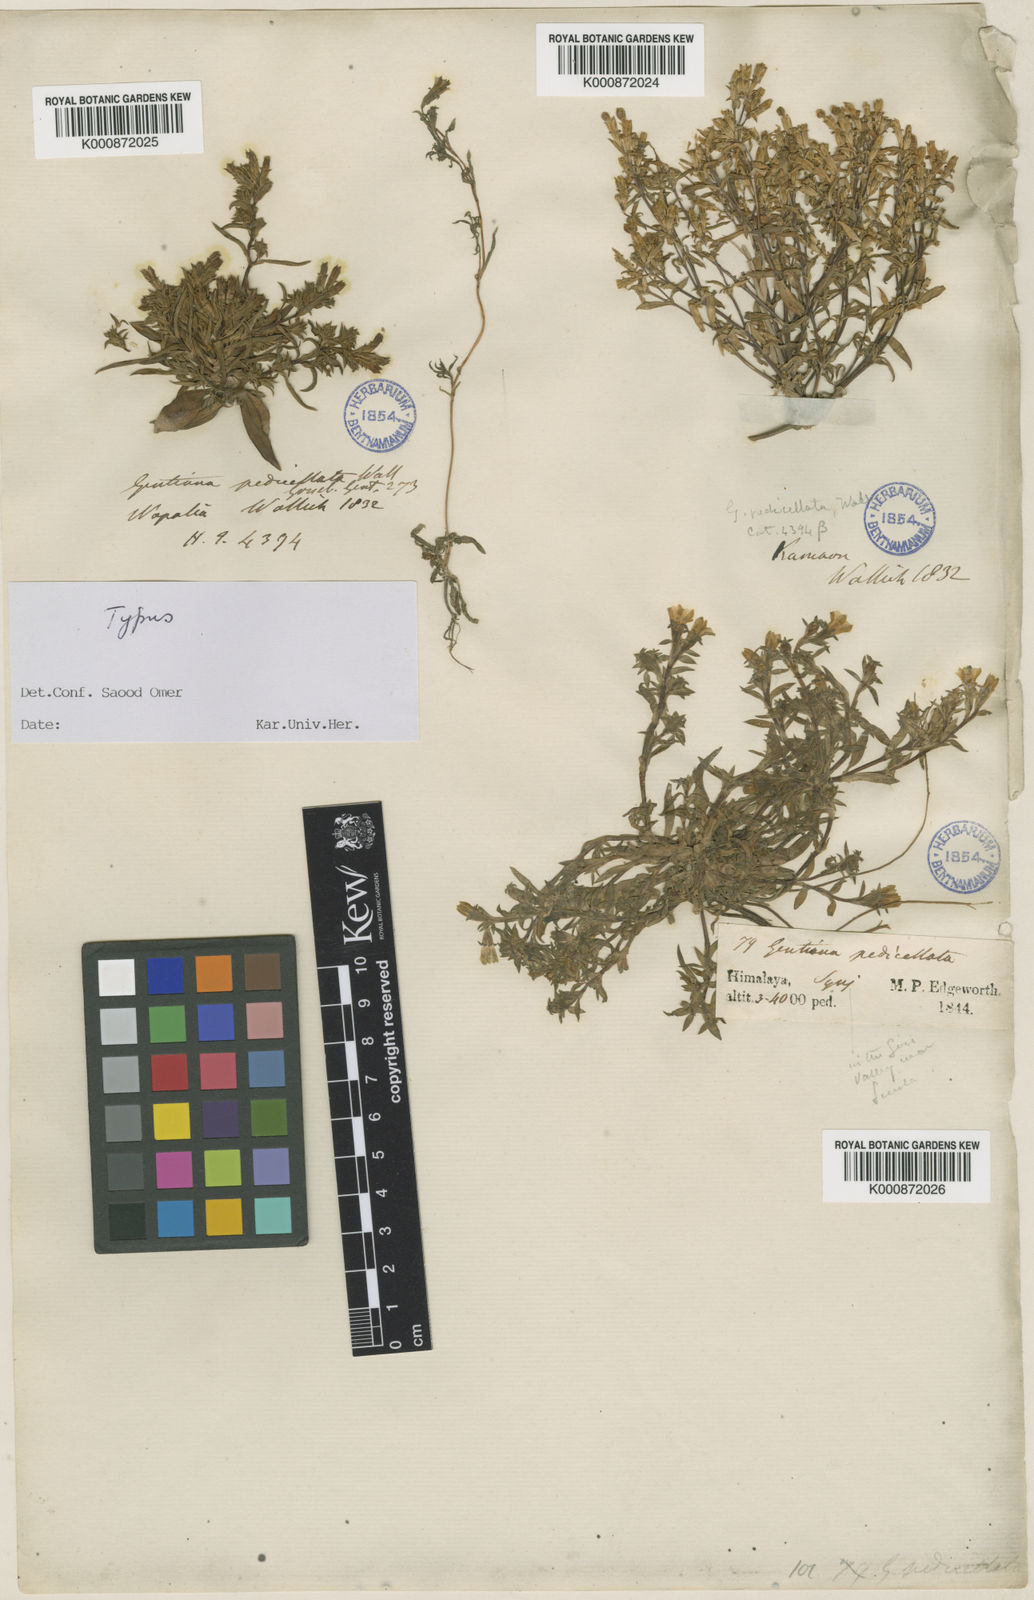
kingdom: Plantae
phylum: Tracheophyta
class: Magnoliopsida
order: Gentianales
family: Gentianaceae
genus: Gentiana
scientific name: Gentiana pedicellata
